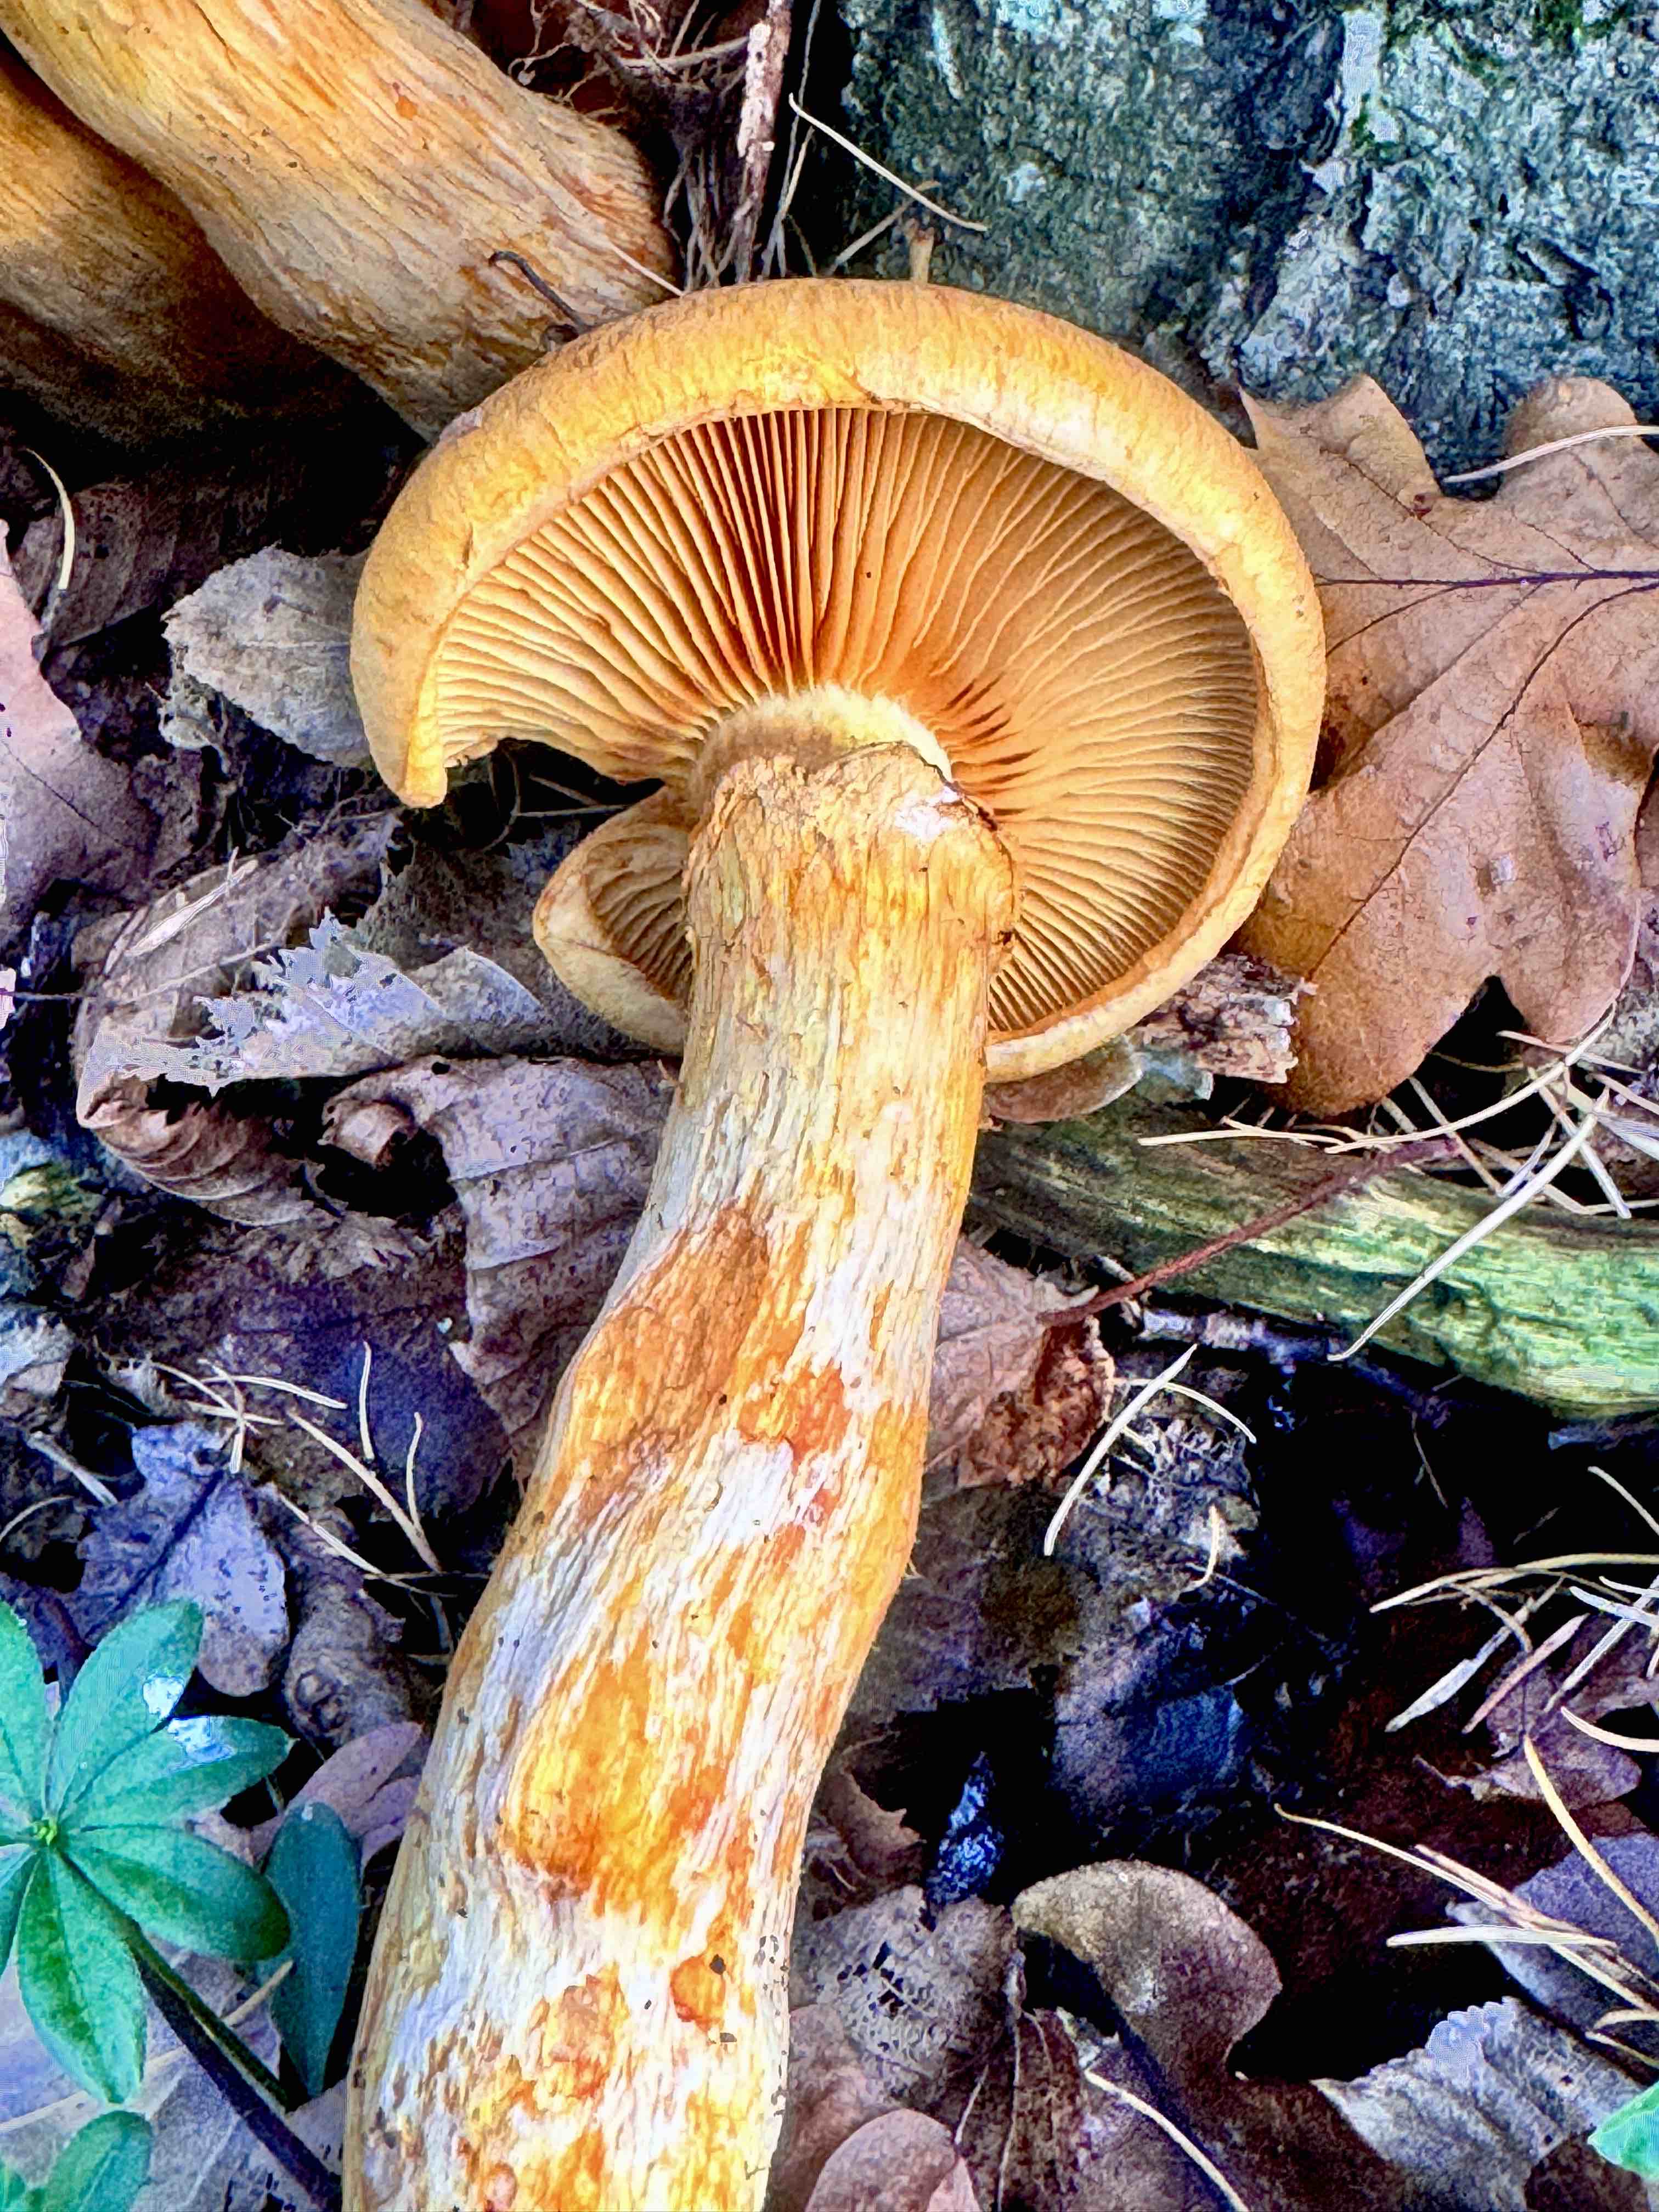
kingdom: Fungi
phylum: Basidiomycota
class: Agaricomycetes
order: Agaricales
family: Hymenogastraceae
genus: Gymnopilus
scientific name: Gymnopilus spectabilis
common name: fibret flammehat
